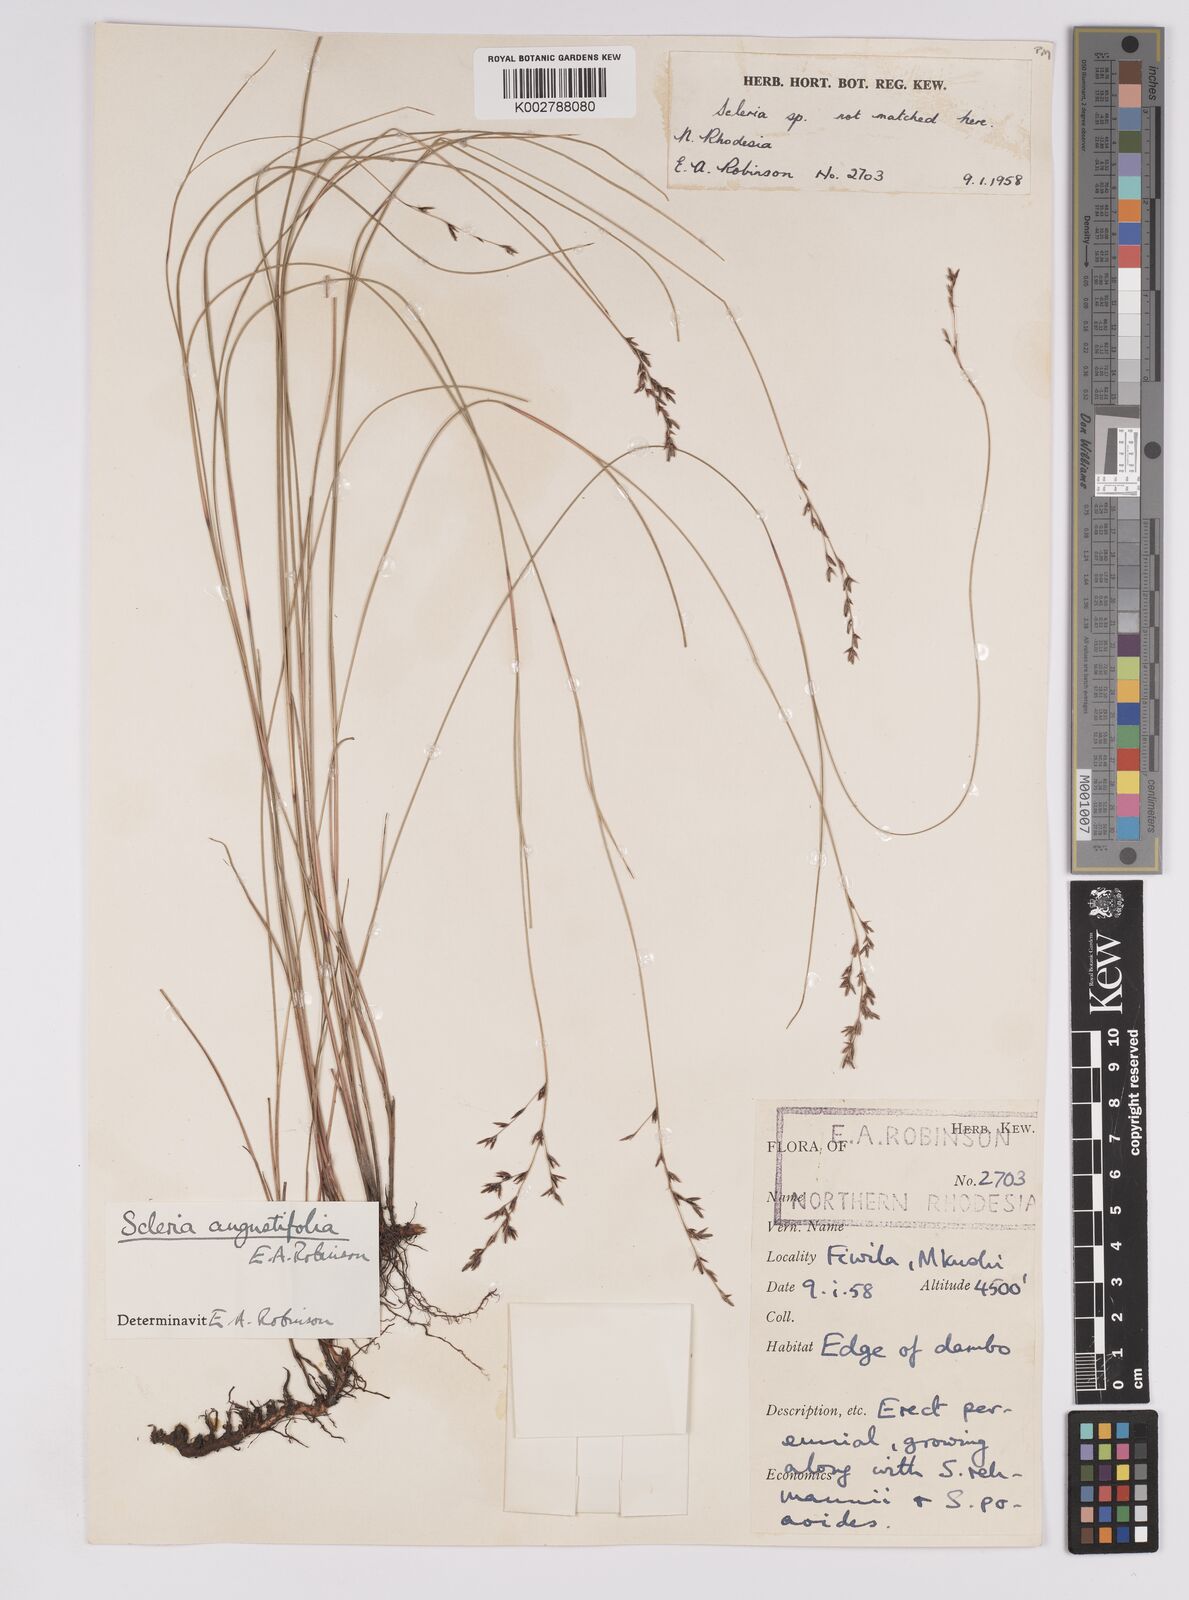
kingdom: Plantae
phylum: Tracheophyta
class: Liliopsida
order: Poales
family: Cyperaceae
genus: Scleria
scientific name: Scleria angustifolia
